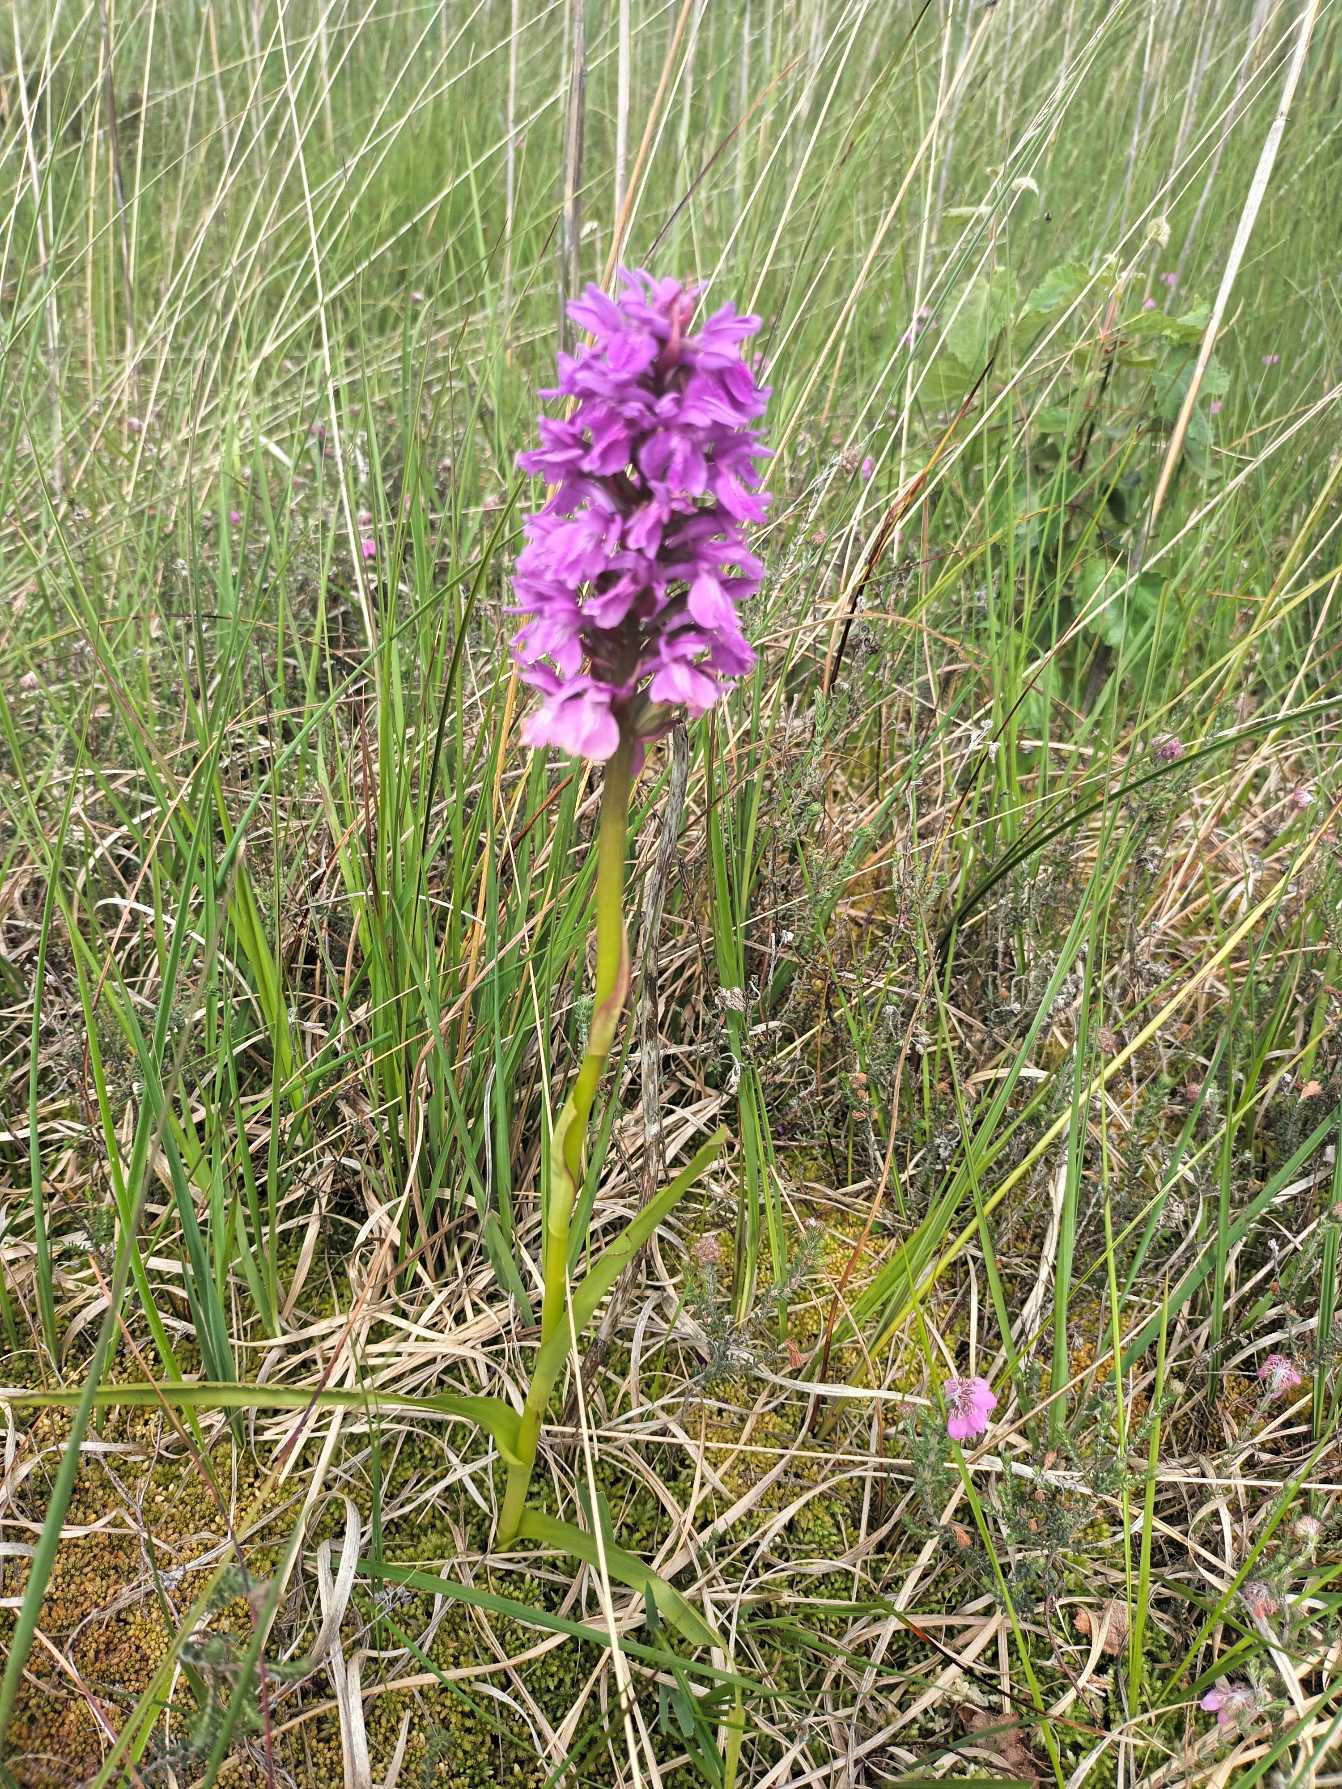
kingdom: Plantae
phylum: Tracheophyta
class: Liliopsida
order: Asparagales
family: Orchidaceae
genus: Dactylorhiza
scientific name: Dactylorhiza majalis
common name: Mos-gøgeurt
